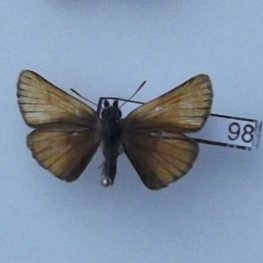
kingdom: Animalia
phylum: Arthropoda
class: Insecta
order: Lepidoptera
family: Hesperiidae
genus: Thymelicus
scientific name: Thymelicus lineola
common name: European Skipper
